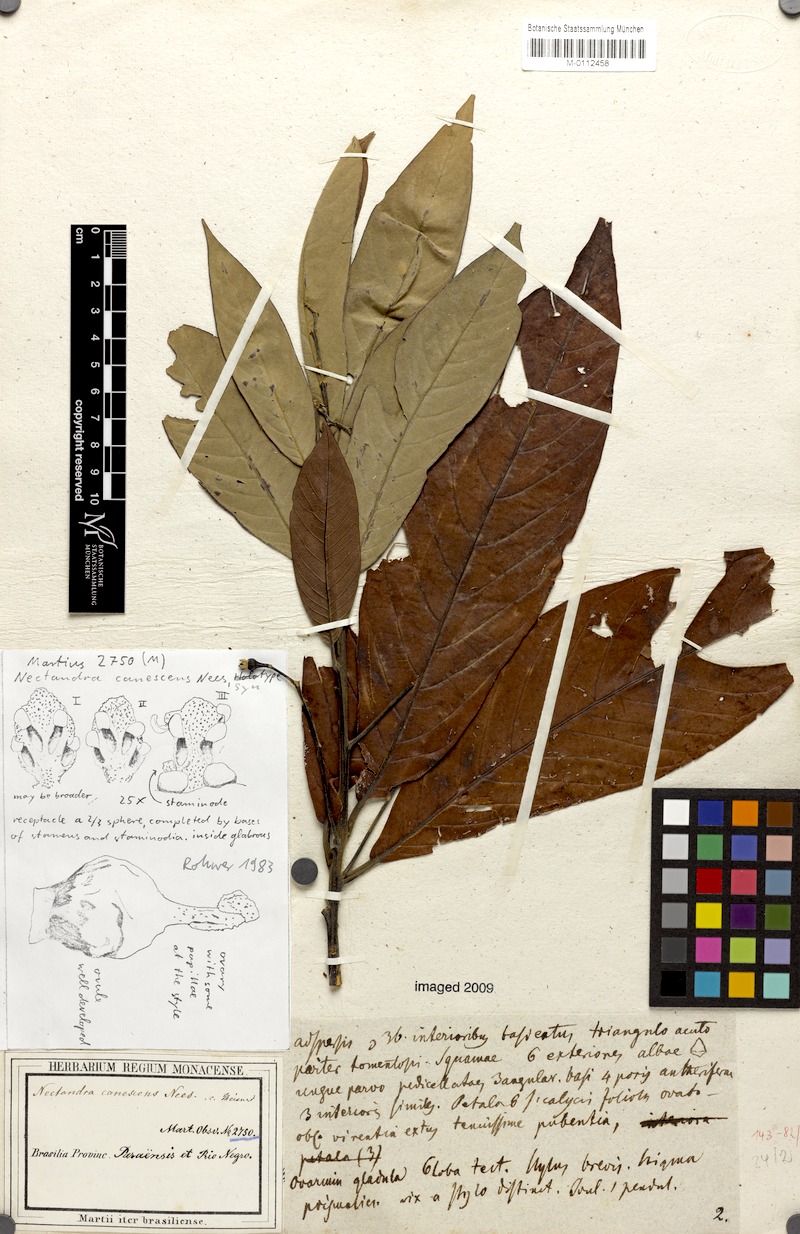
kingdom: Plantae
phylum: Tracheophyta
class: Magnoliopsida
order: Laurales
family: Lauraceae
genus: Nectandra
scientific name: Nectandra canescens
